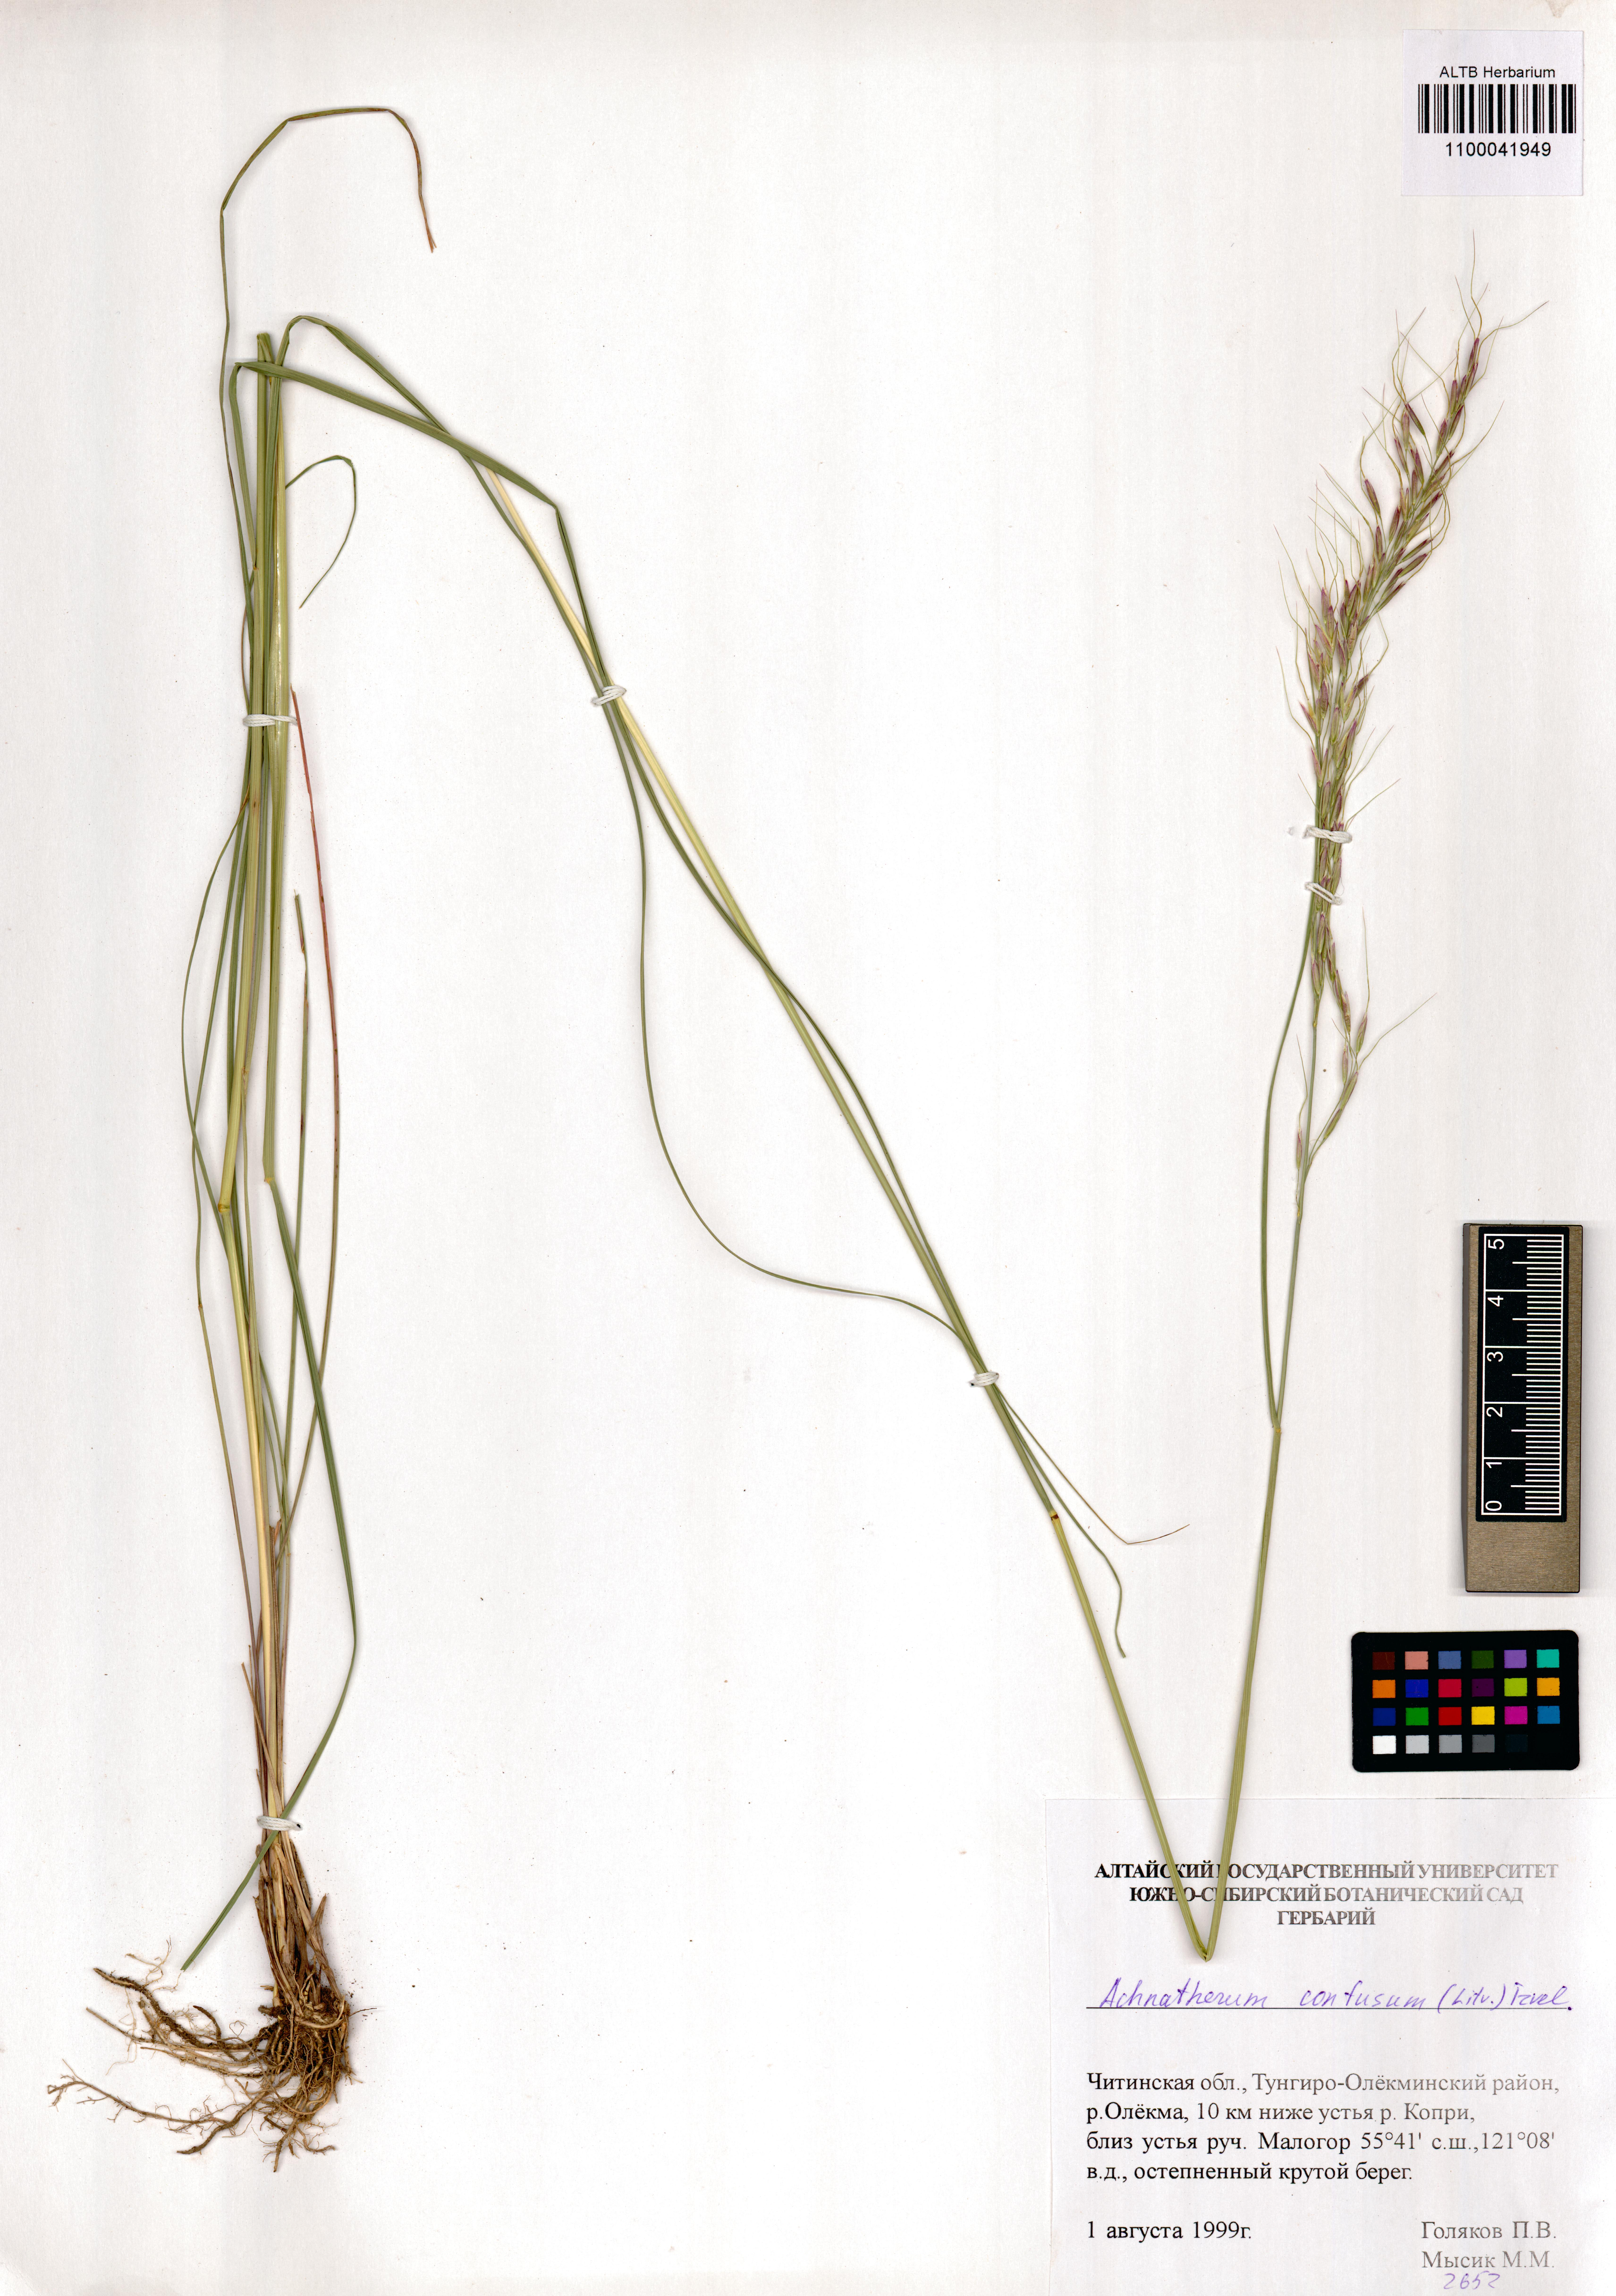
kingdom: Plantae
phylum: Tracheophyta
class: Liliopsida
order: Poales
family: Poaceae
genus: Achnatherum
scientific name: Achnatherum confusum
